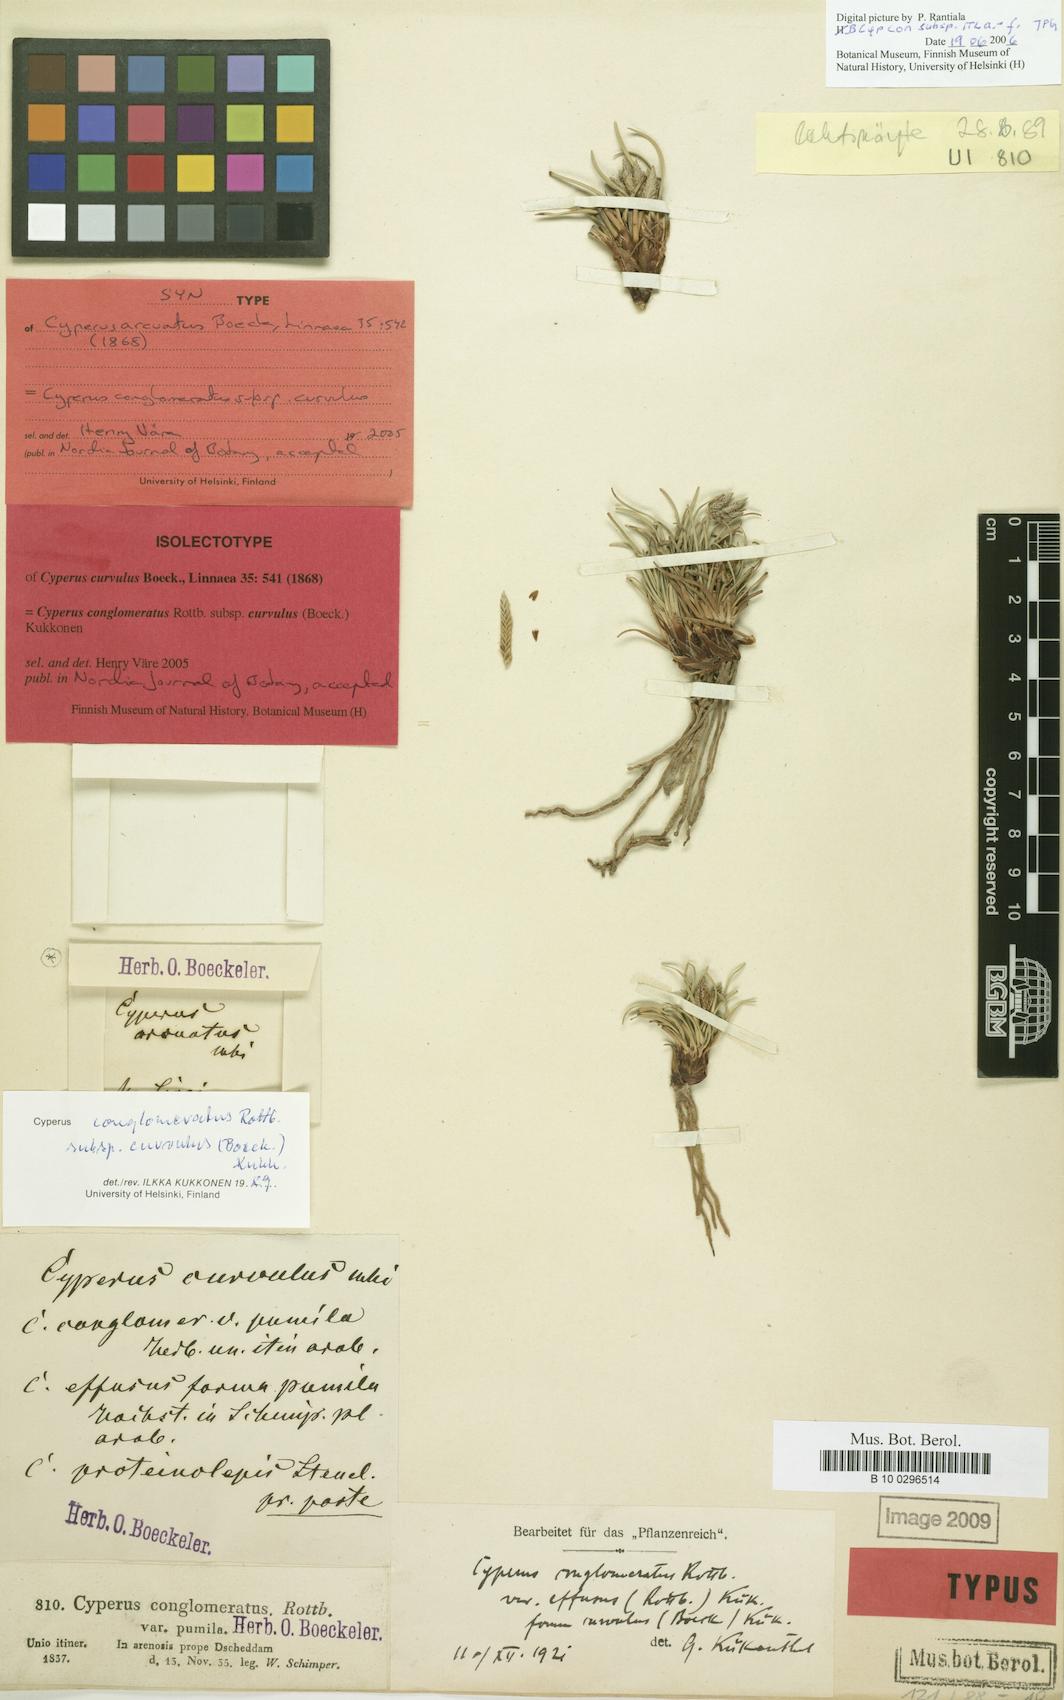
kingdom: Plantae
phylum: Tracheophyta
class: Liliopsida
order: Poales
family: Cyperaceae
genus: Cyperus
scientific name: Cyperus conglomeratus
